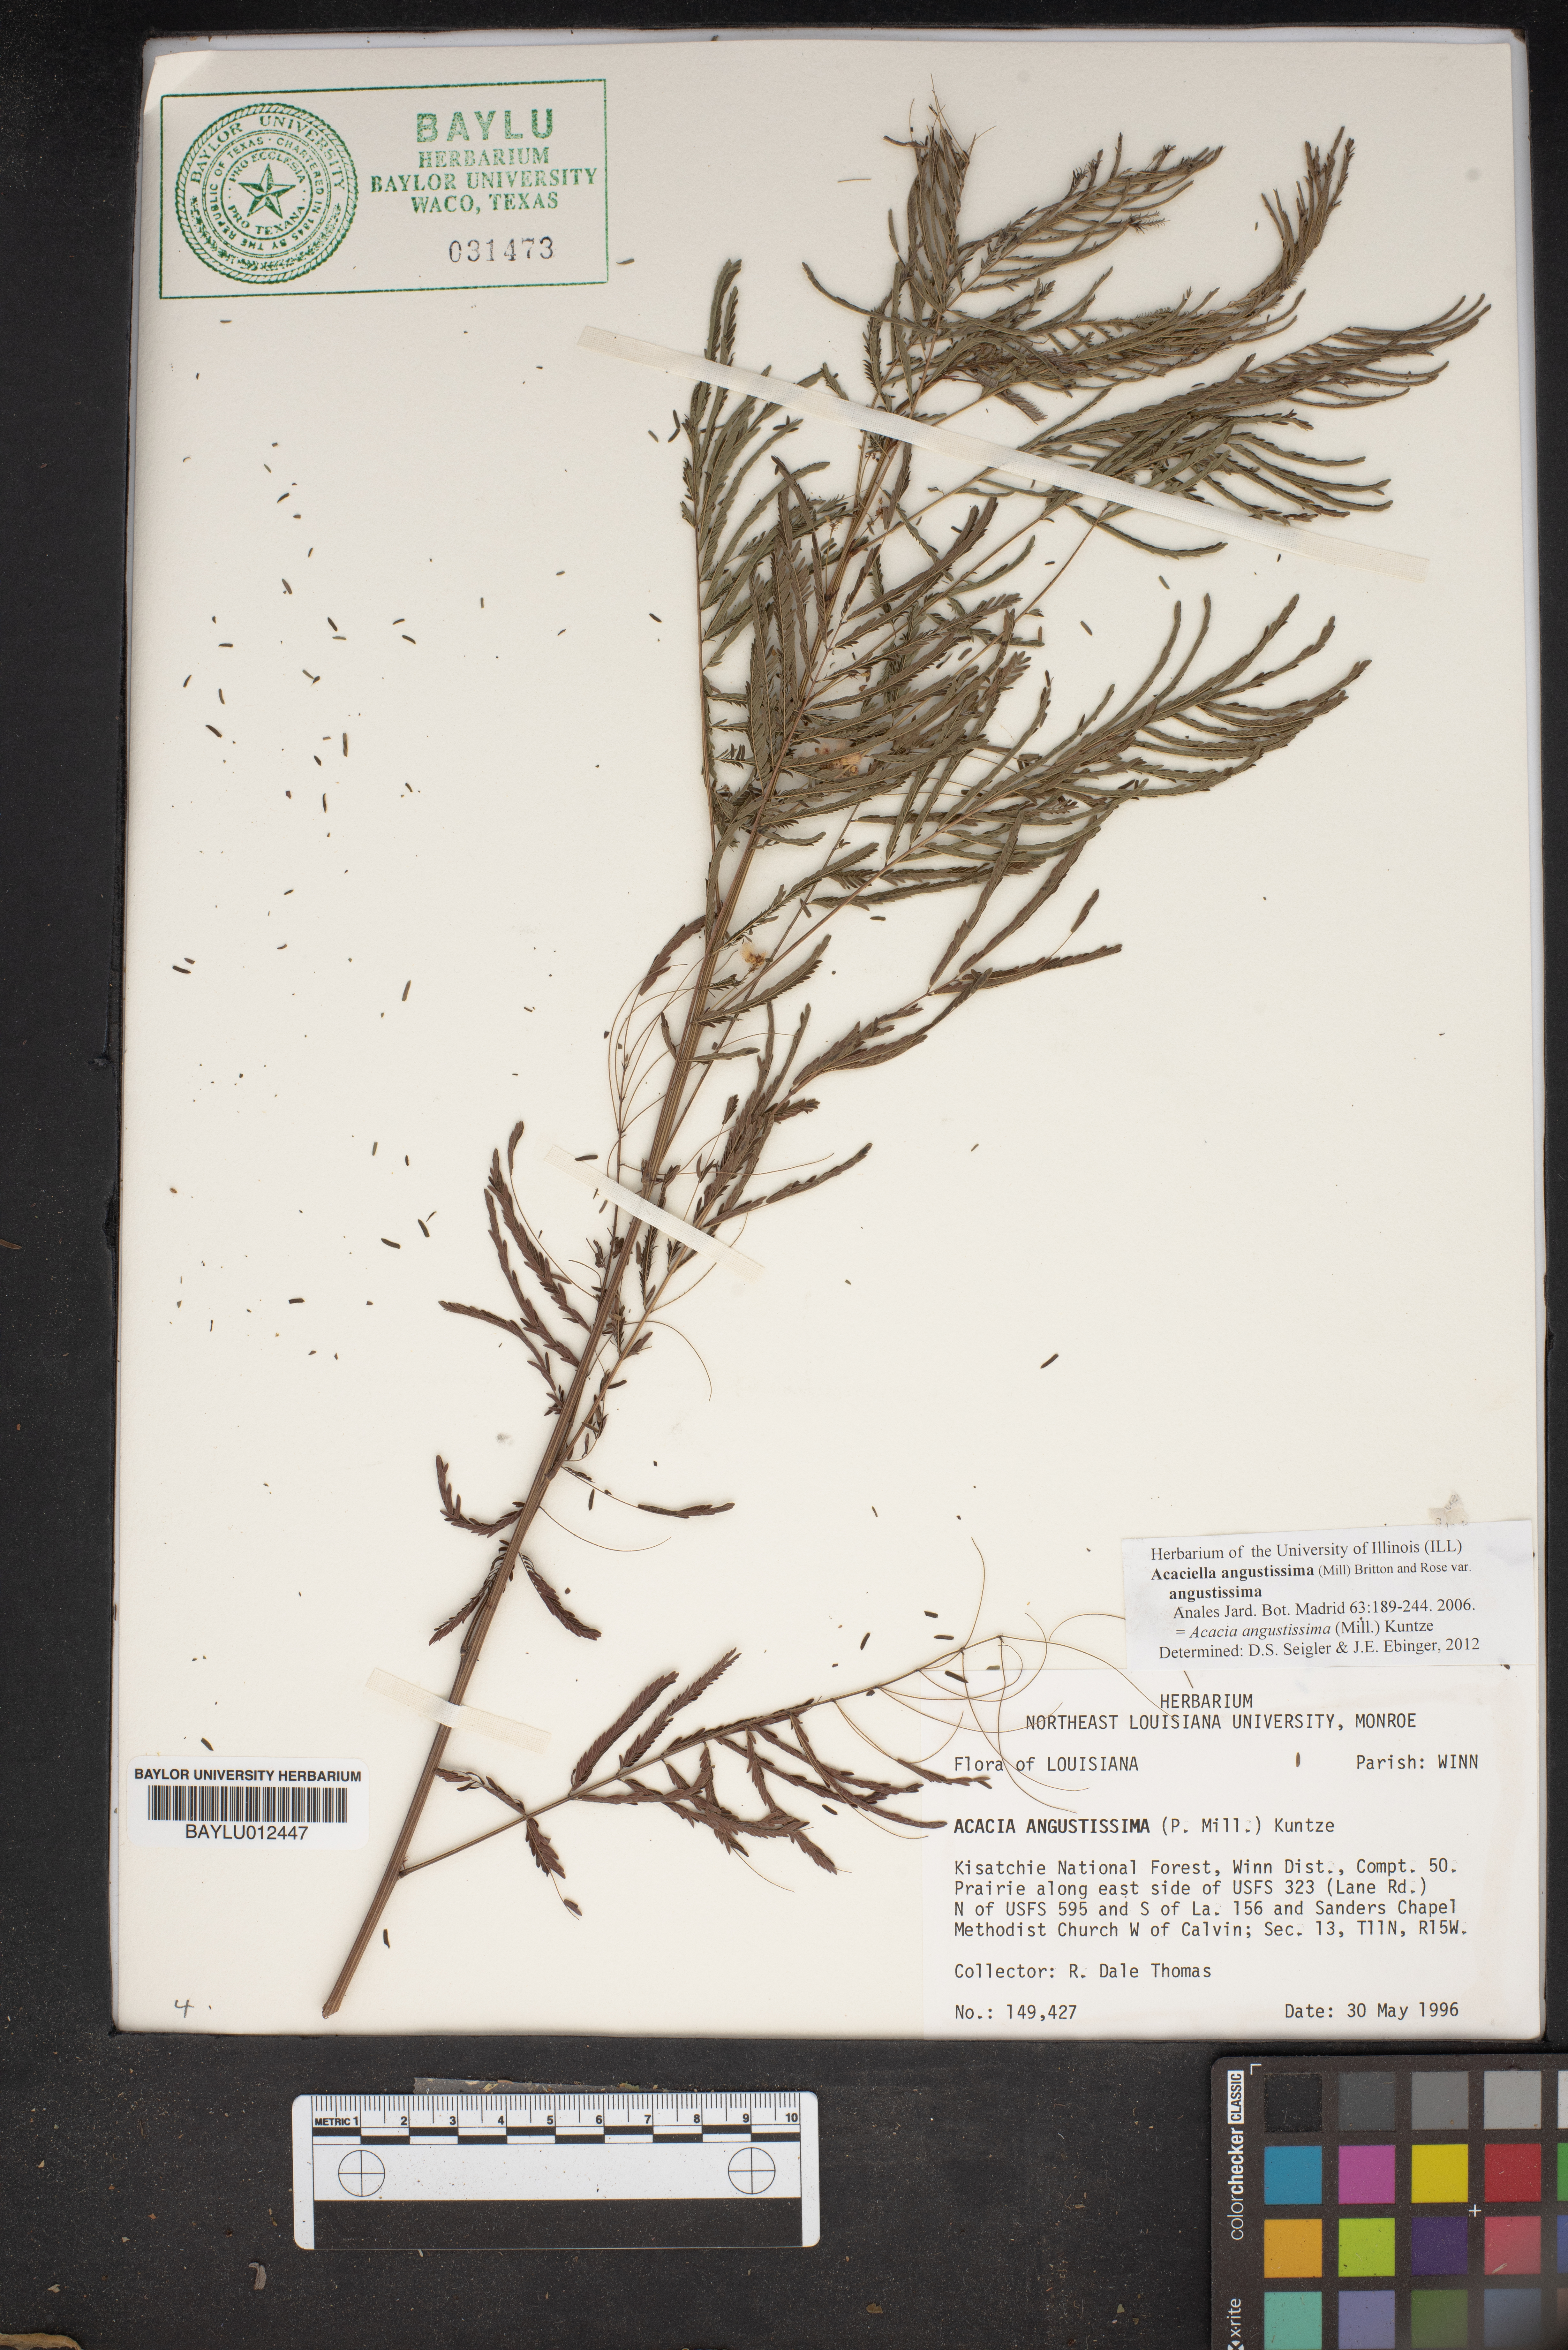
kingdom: Plantae
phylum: Tracheophyta
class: Magnoliopsida
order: Fabales
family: Fabaceae
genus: Acaciella
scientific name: Acaciella angustissima
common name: Prairie acacia
